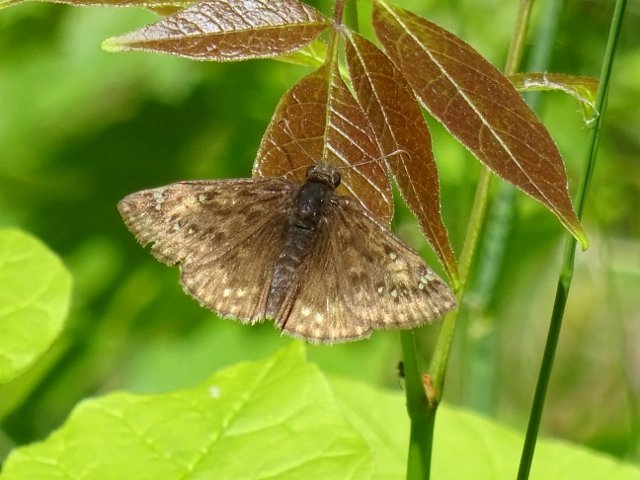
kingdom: Animalia
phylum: Arthropoda
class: Insecta
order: Lepidoptera
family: Hesperiidae
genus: Gesta
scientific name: Gesta
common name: Juvenal's Duskywing
